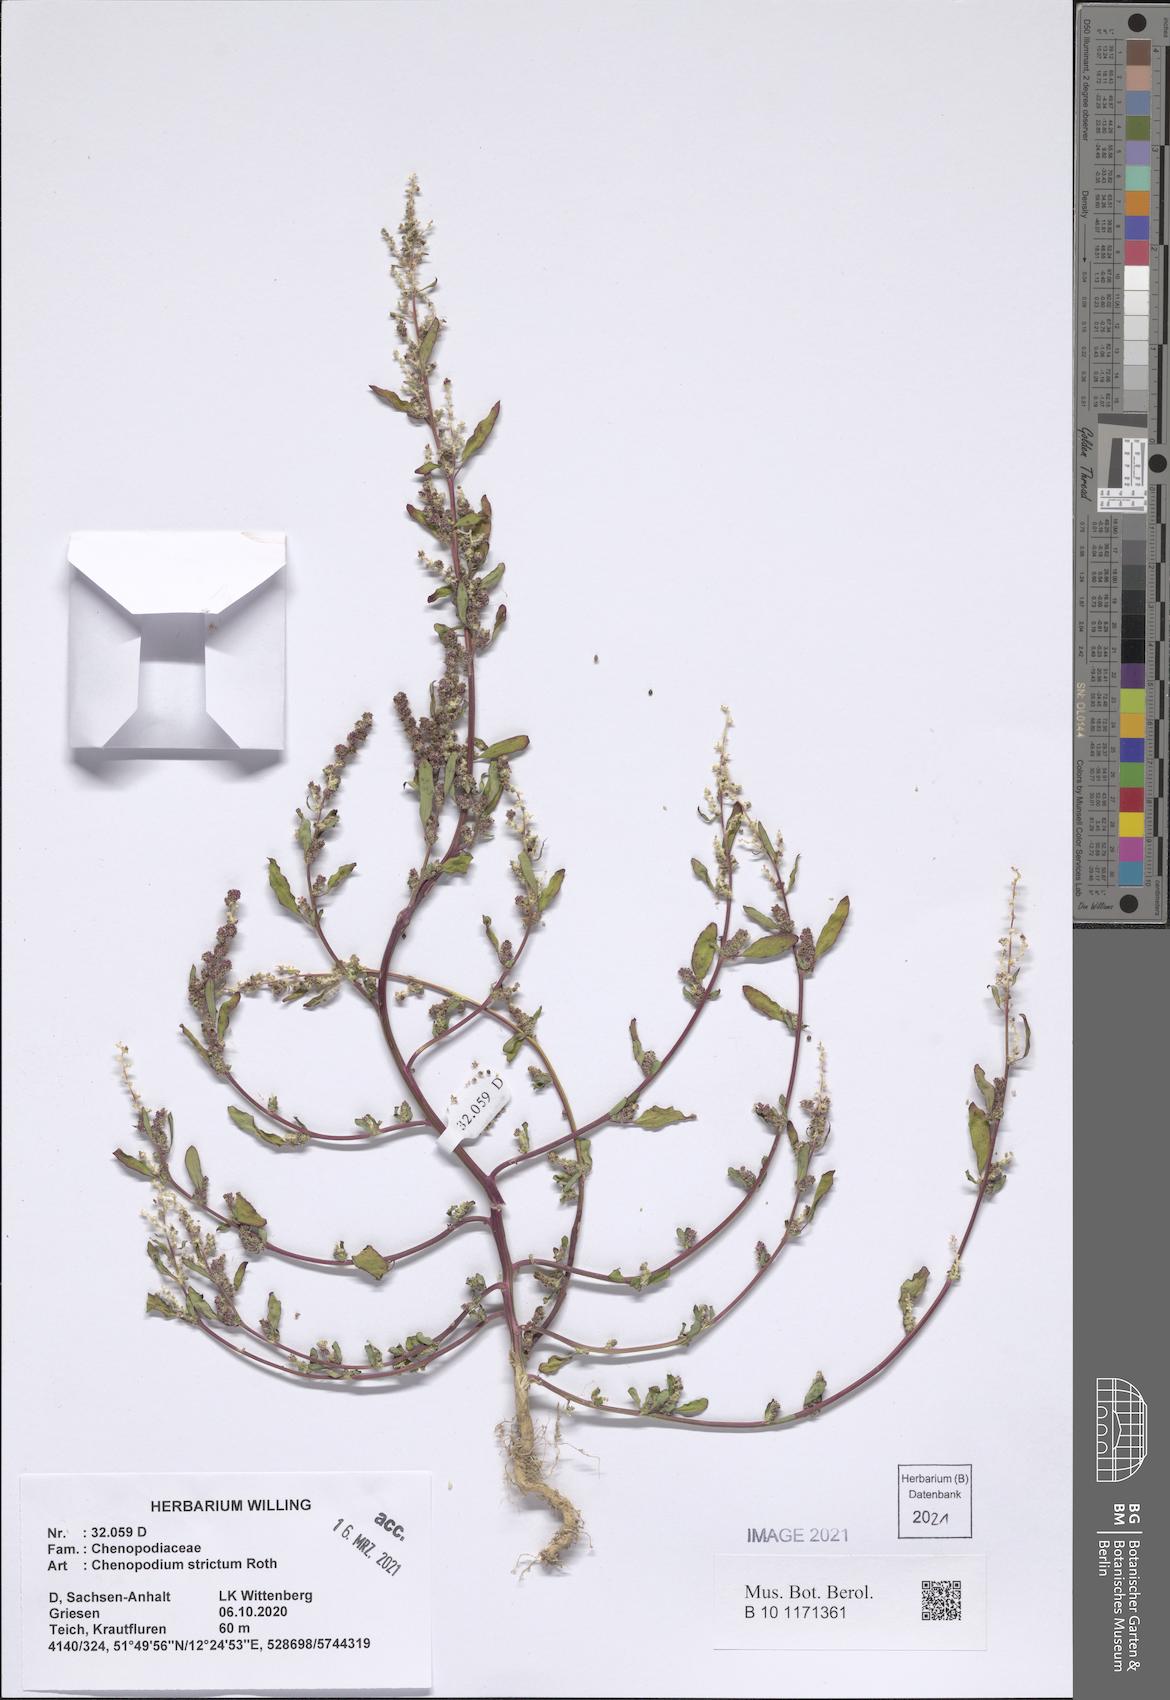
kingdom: Plantae
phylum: Tracheophyta
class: Magnoliopsida
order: Caryophyllales
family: Amaranthaceae
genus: Chenopodium
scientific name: Chenopodium album
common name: Fat-hen
